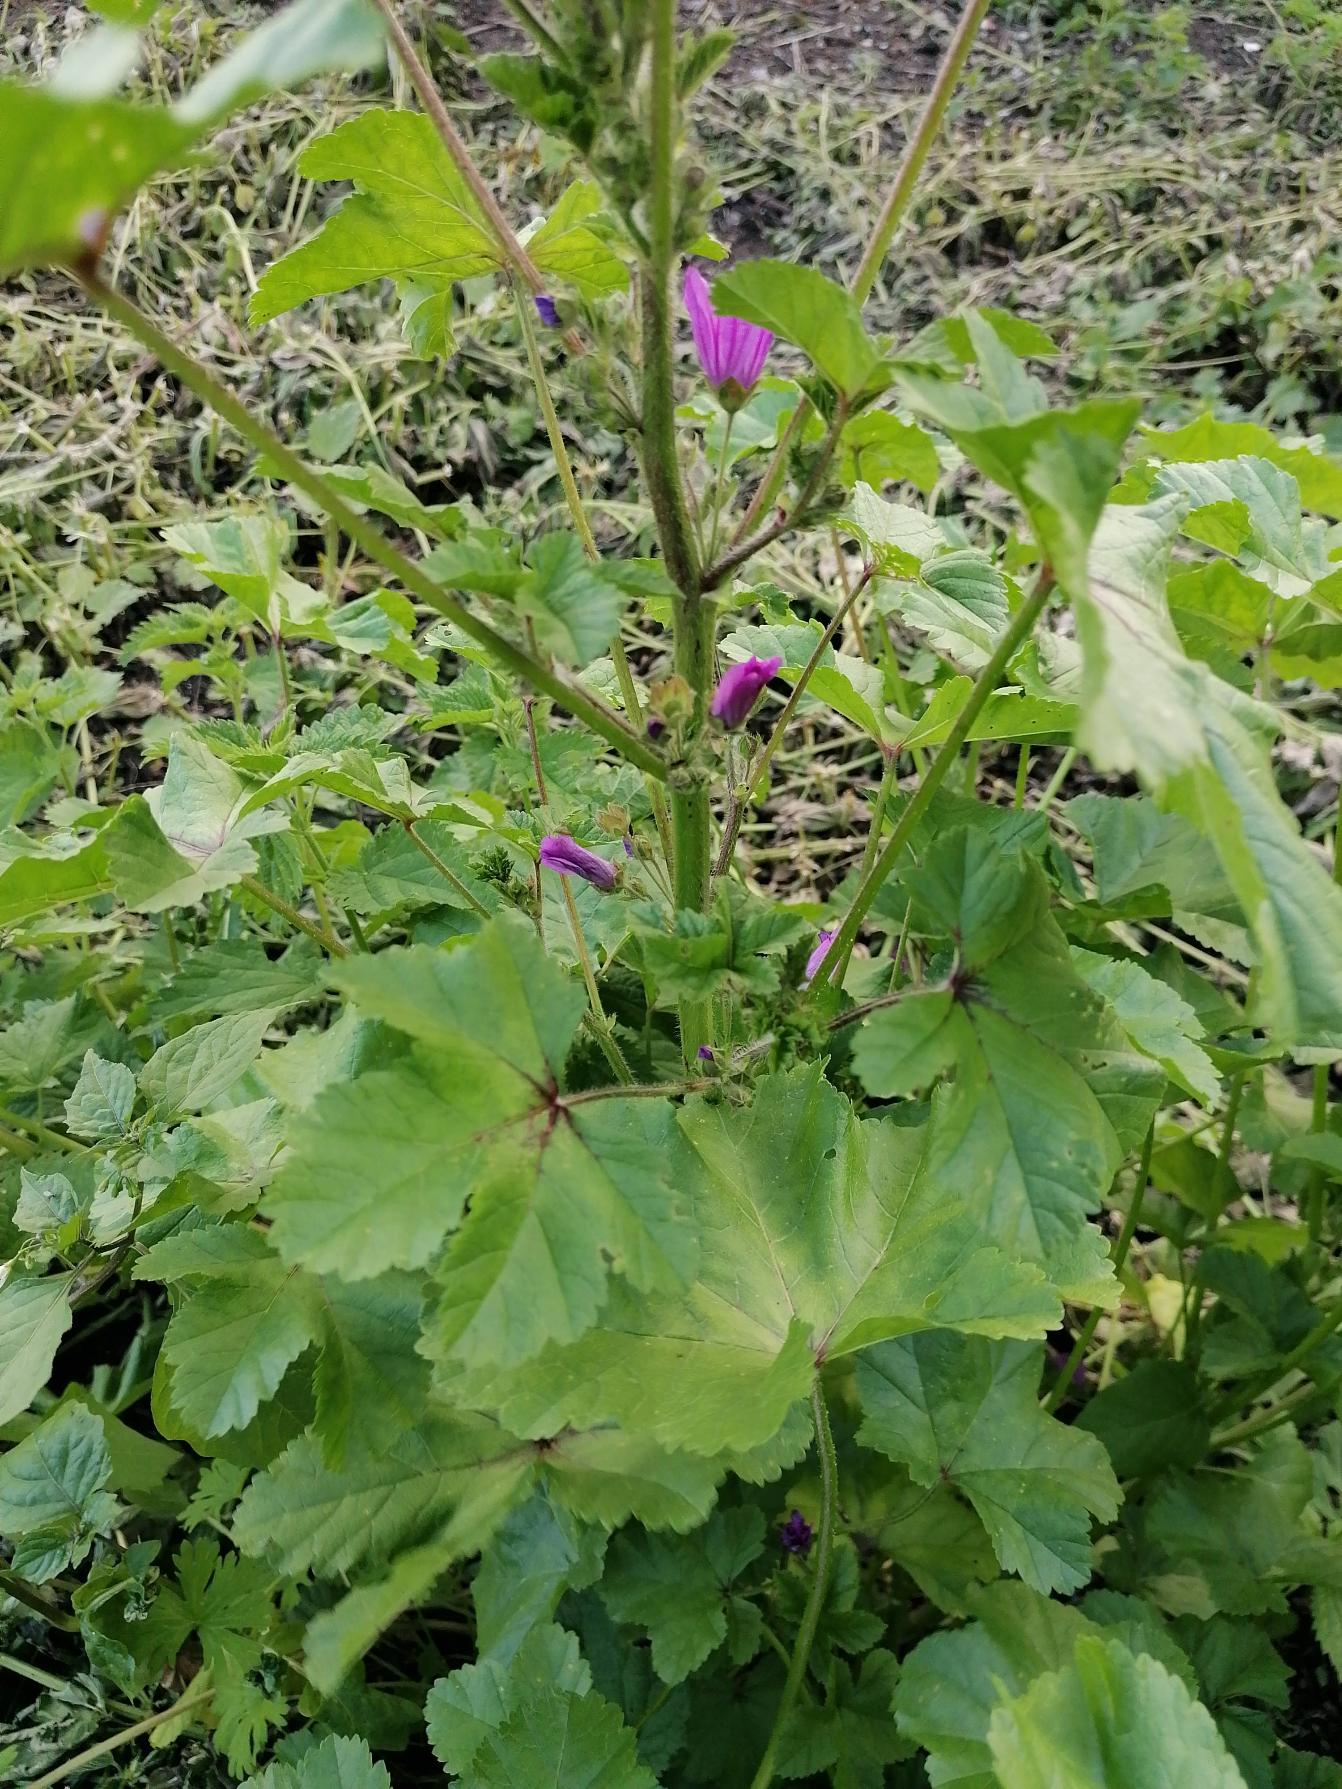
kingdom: Plantae
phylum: Tracheophyta
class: Magnoliopsida
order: Malvales
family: Malvaceae
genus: Malva
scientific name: Malva sylvestris
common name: Almindelig katost
